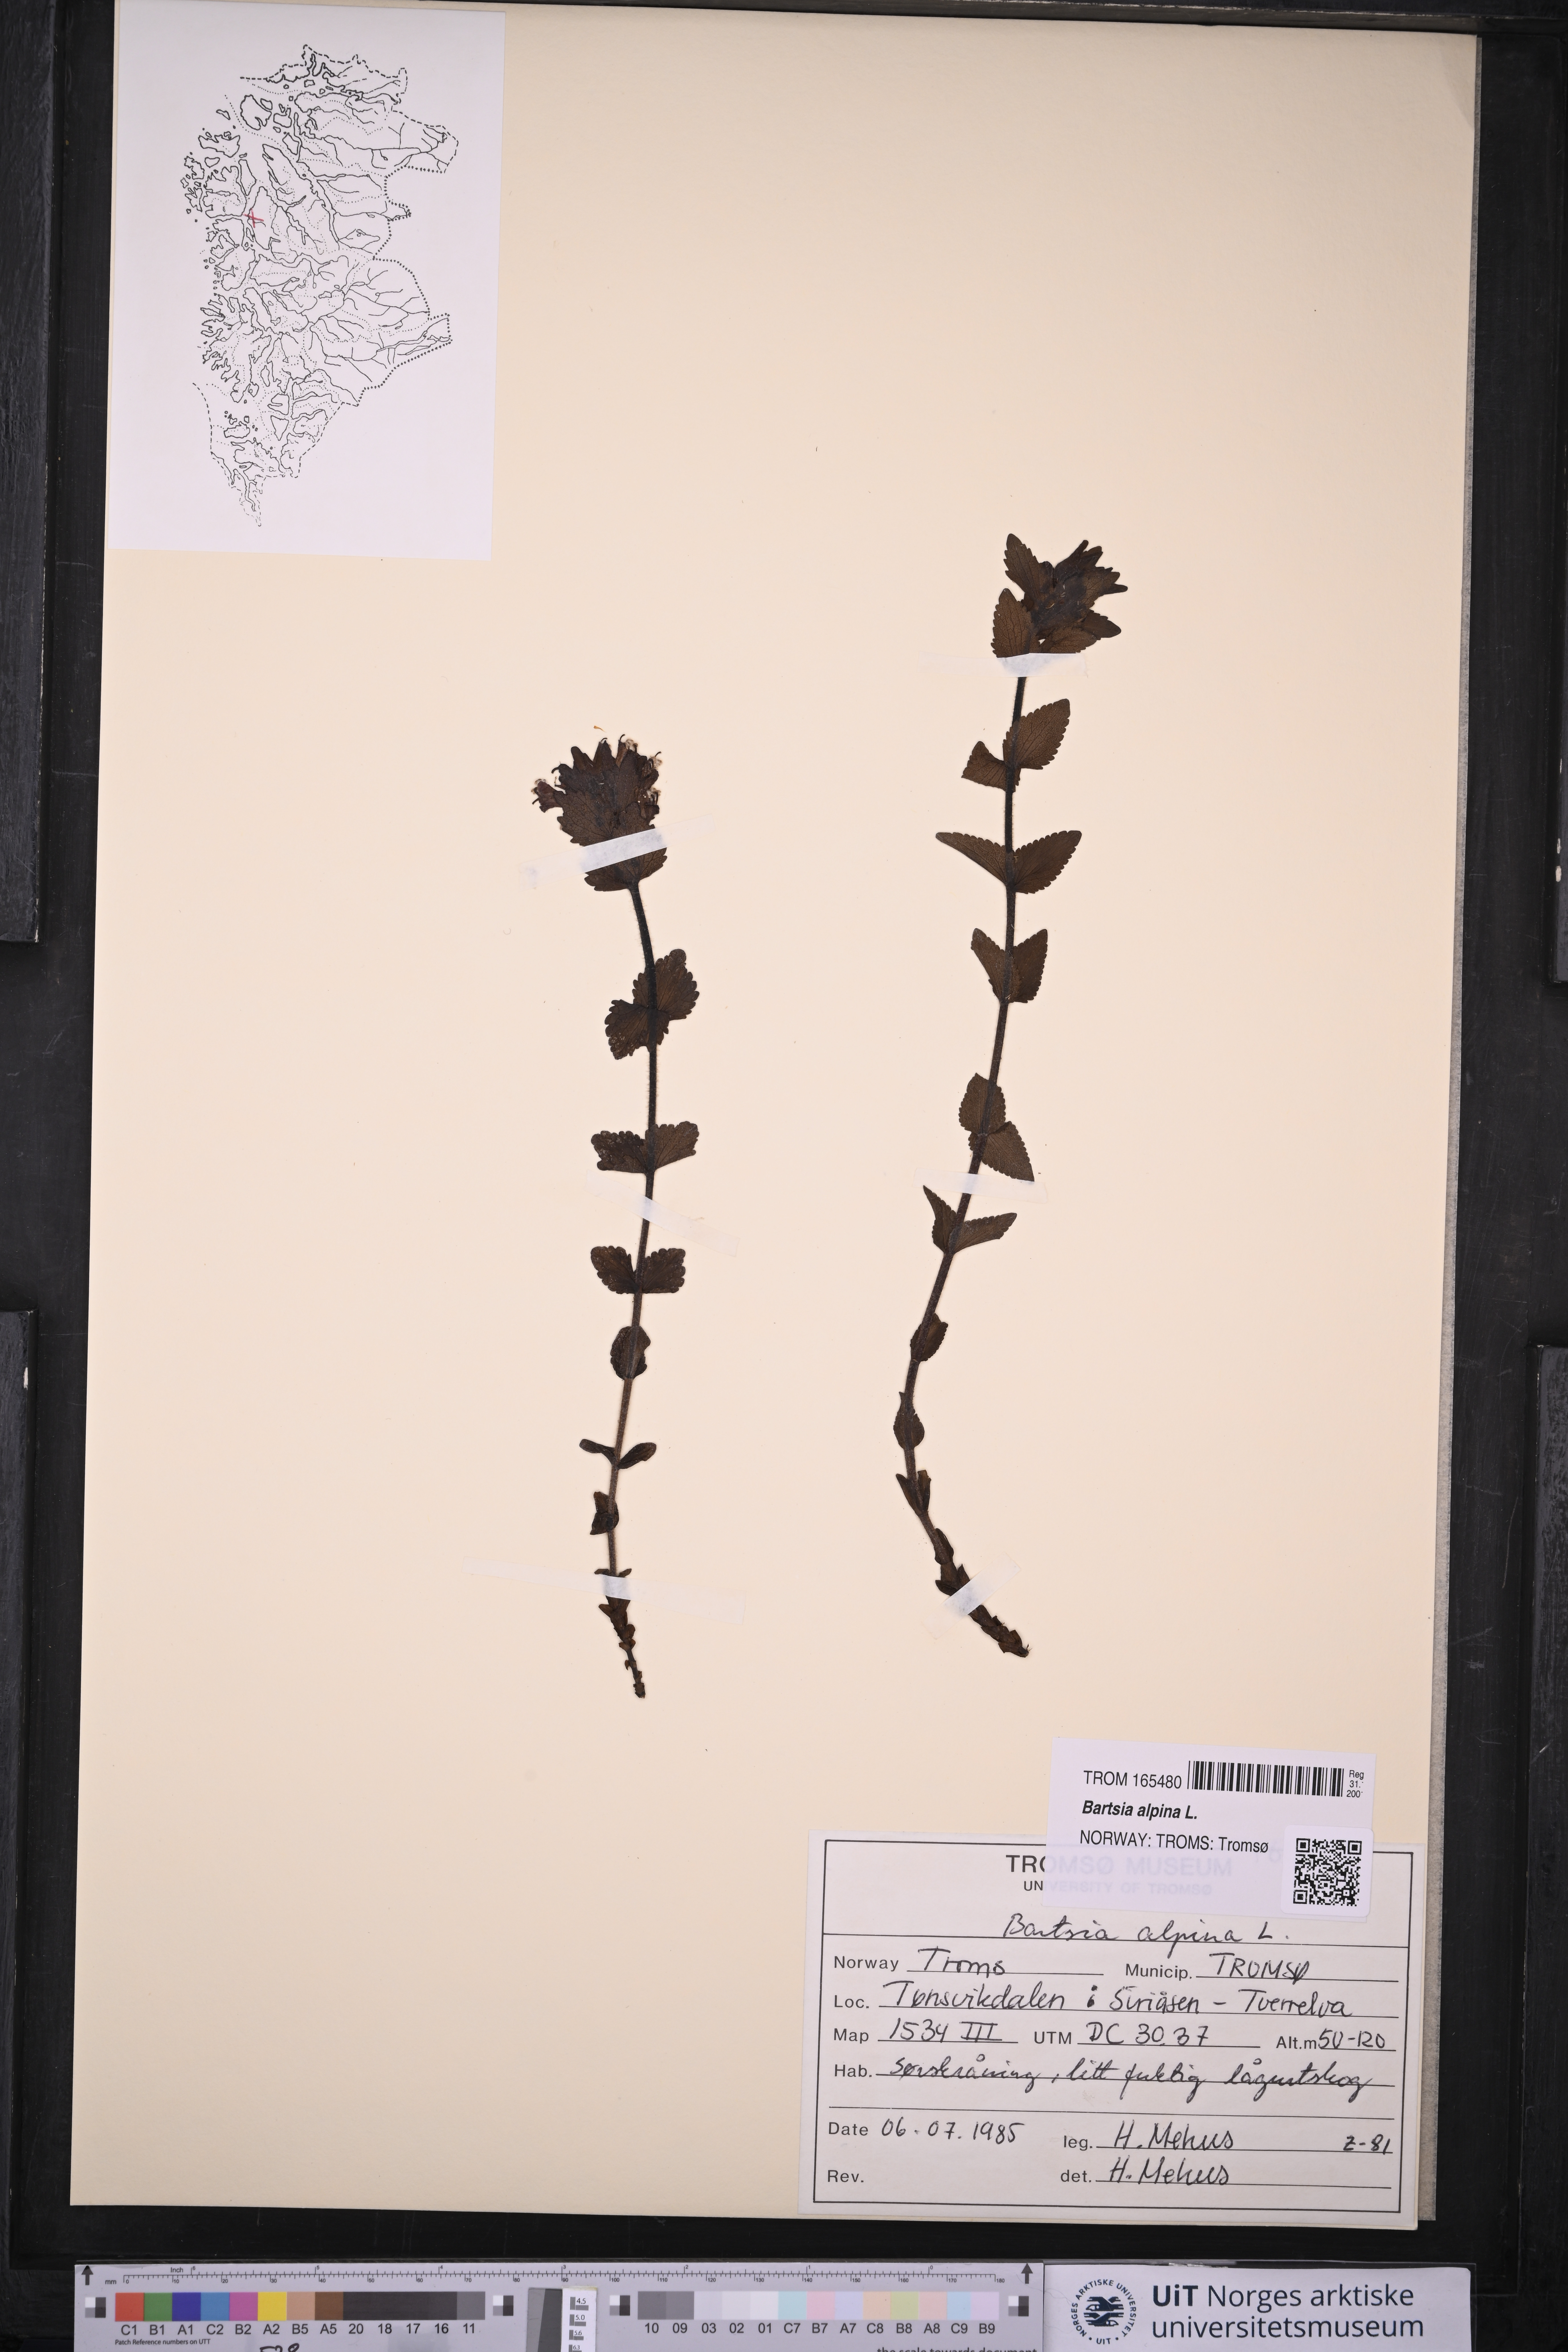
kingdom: Plantae
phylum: Tracheophyta
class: Magnoliopsida
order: Lamiales
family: Orobanchaceae
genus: Bartsia
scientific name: Bartsia alpina
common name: Alpine bartsia
